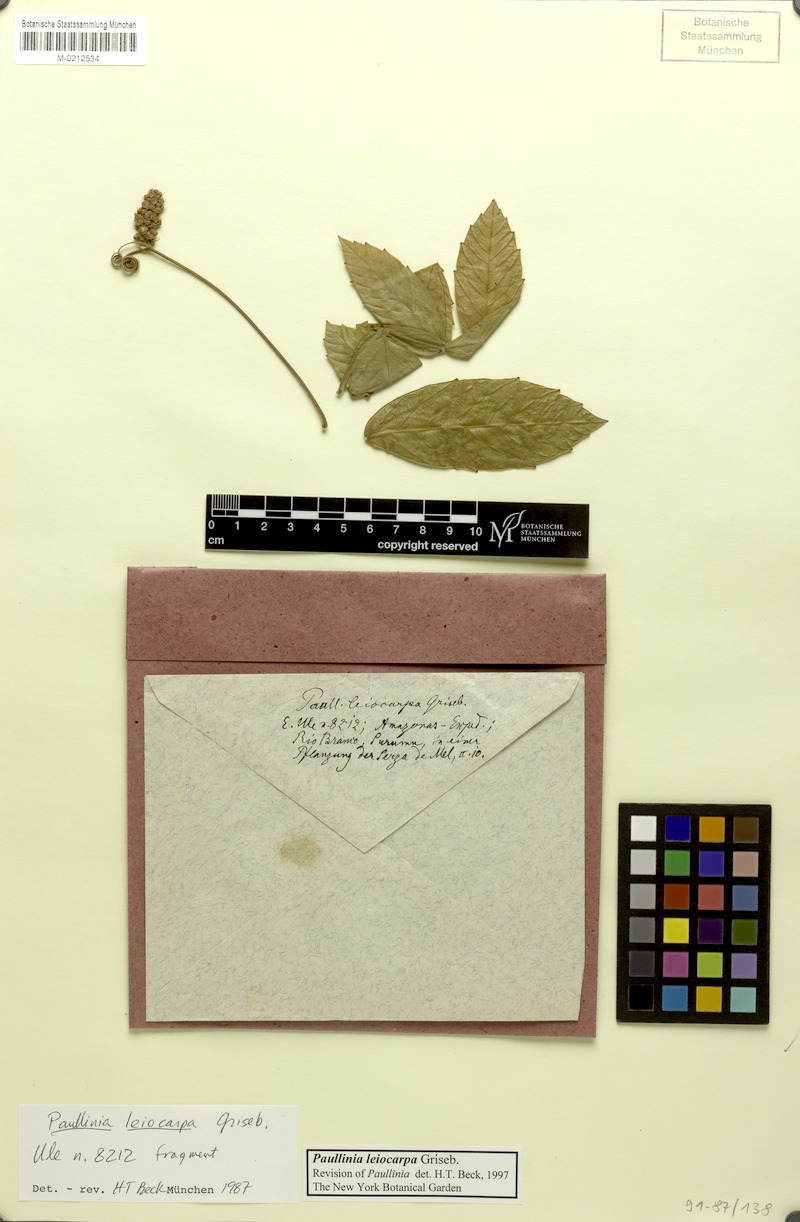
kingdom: Plantae
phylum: Tracheophyta
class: Magnoliopsida
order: Sapindales
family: Sapindaceae
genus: Paullinia
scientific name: Paullinia leiocarpa
